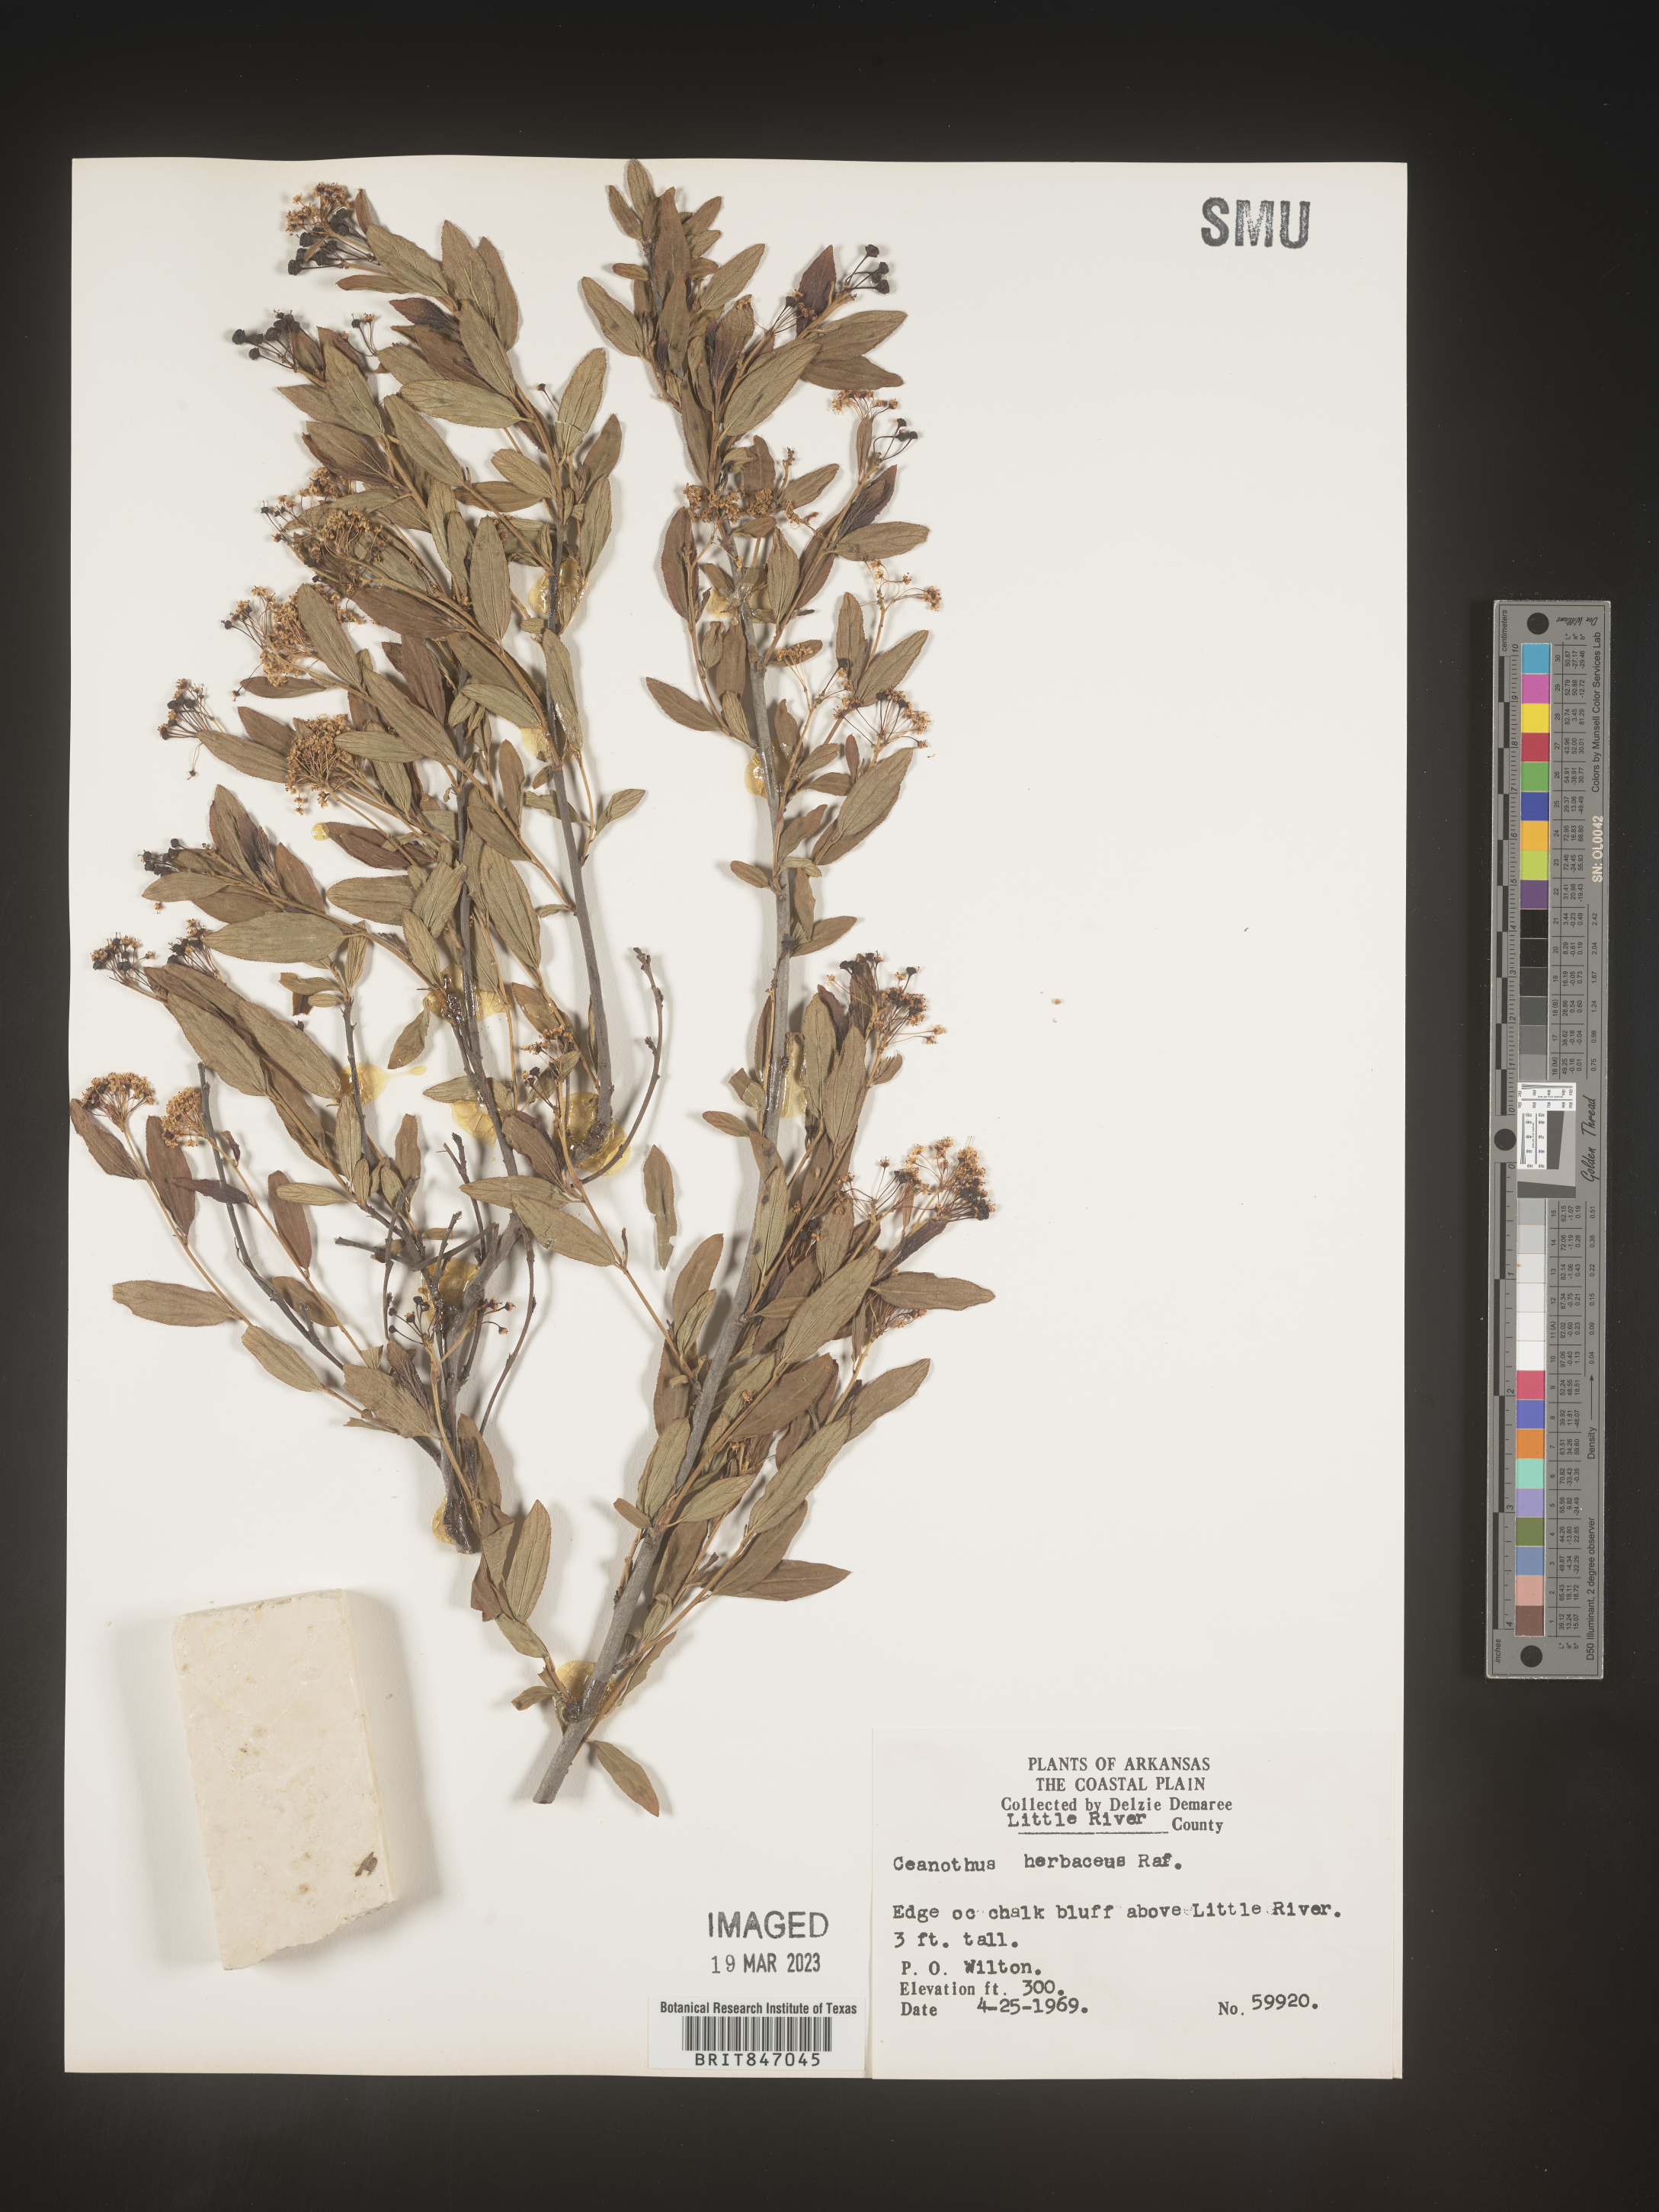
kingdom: Plantae
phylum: Tracheophyta
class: Magnoliopsida
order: Rosales
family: Rhamnaceae
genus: Ceanothus
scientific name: Ceanothus herbaceus
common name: Inland ceanothus
